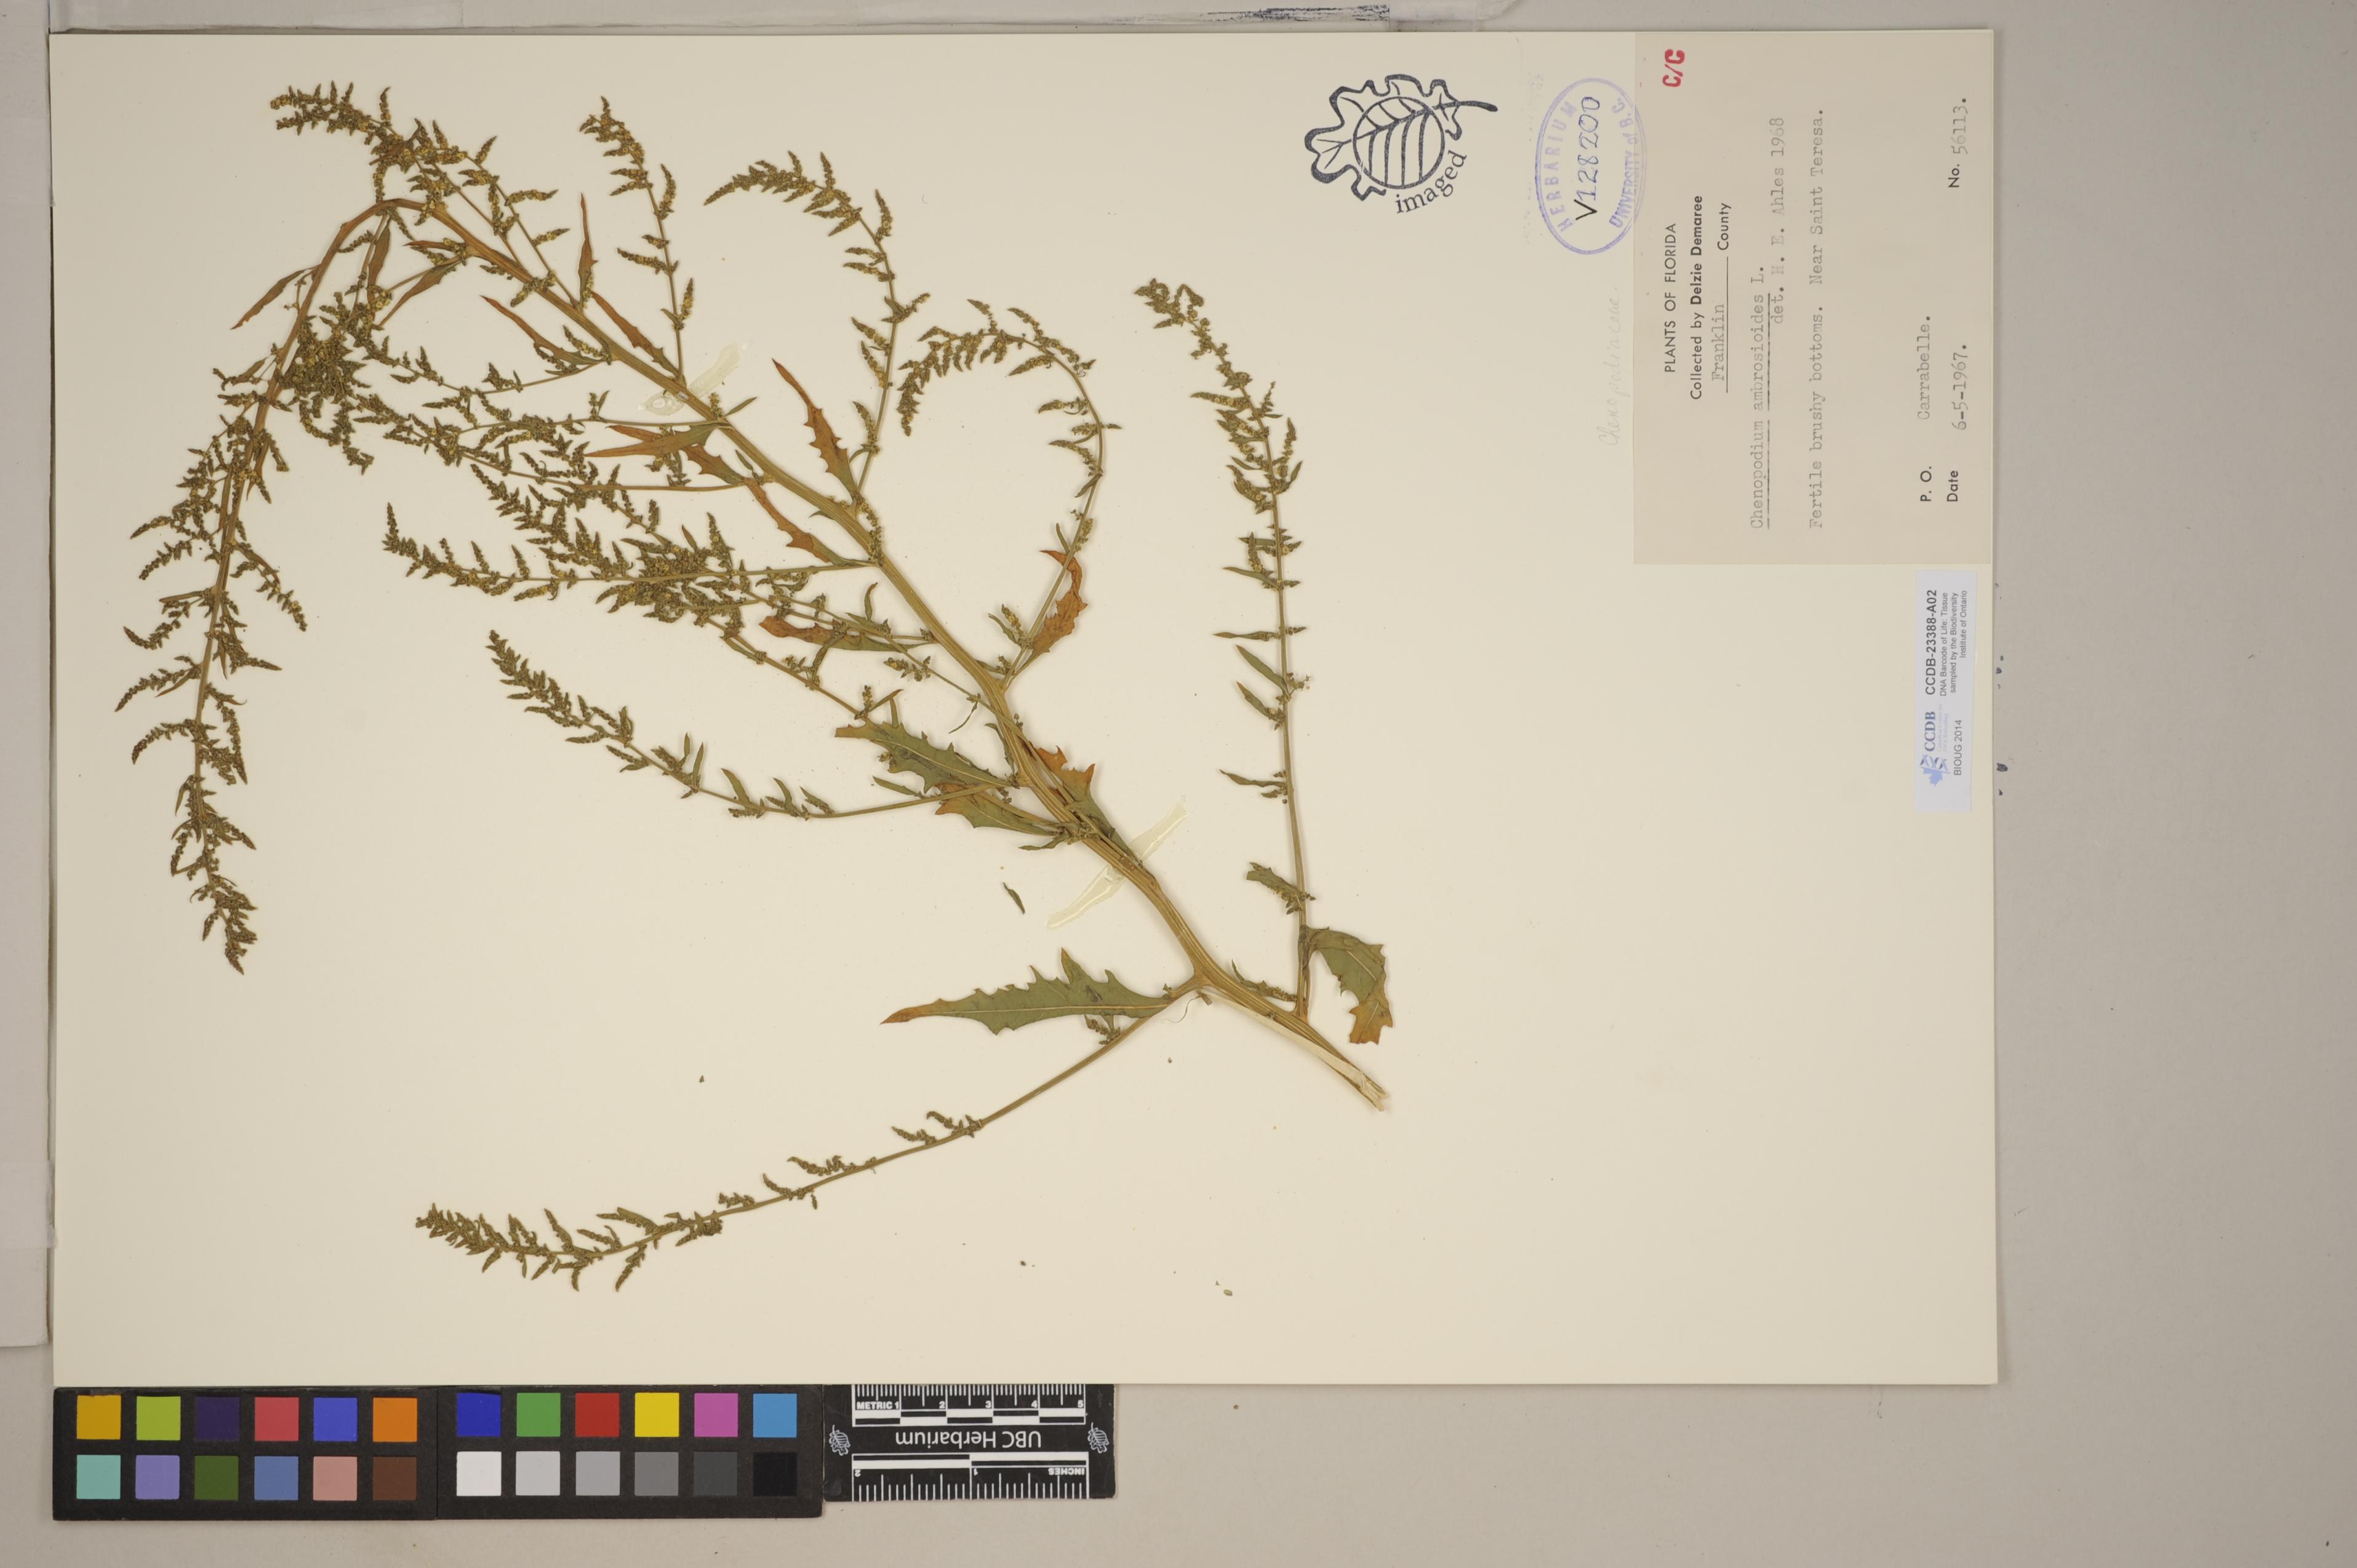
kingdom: Plantae
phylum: Tracheophyta
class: Magnoliopsida
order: Brassicales
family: Brassicaceae
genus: Eutrema
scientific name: Eutrema edwardsii
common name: Penland alpine fen mustard
